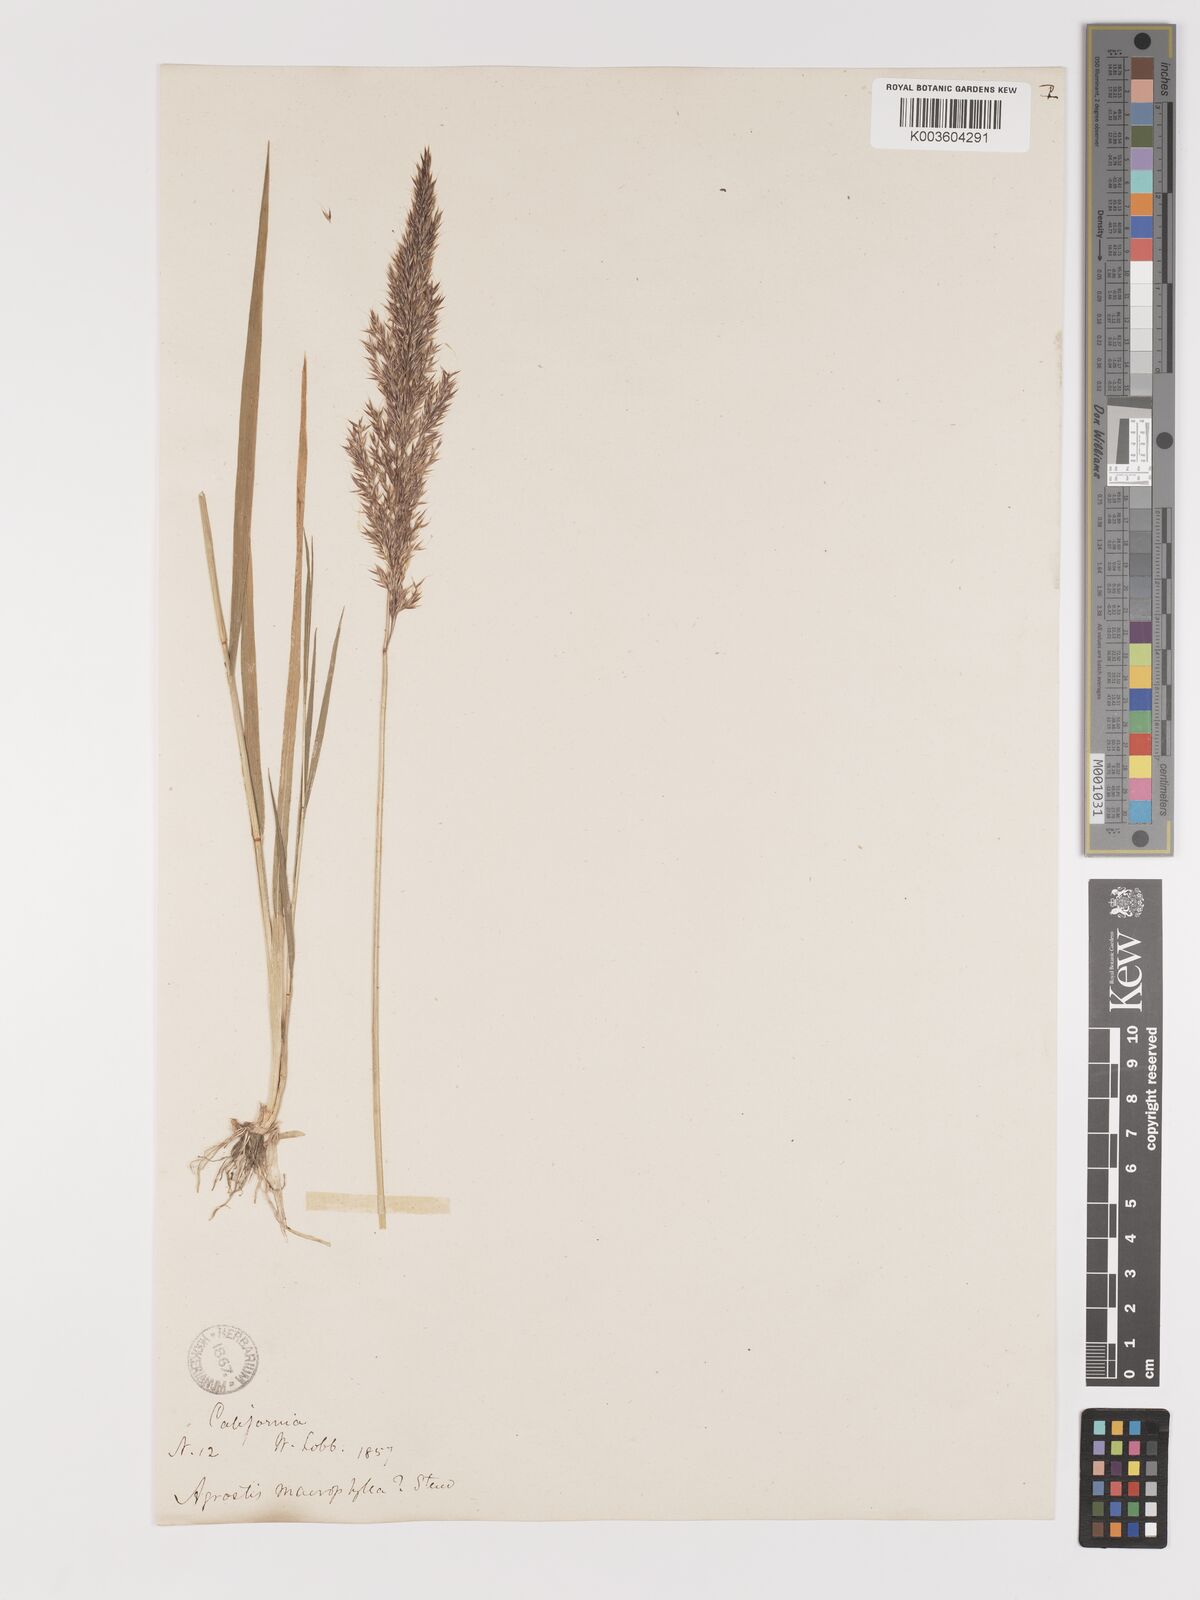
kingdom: Plantae
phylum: Tracheophyta
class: Liliopsida
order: Poales
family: Poaceae
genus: Agrostis
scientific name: Agrostis exarata
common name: Spike bent
